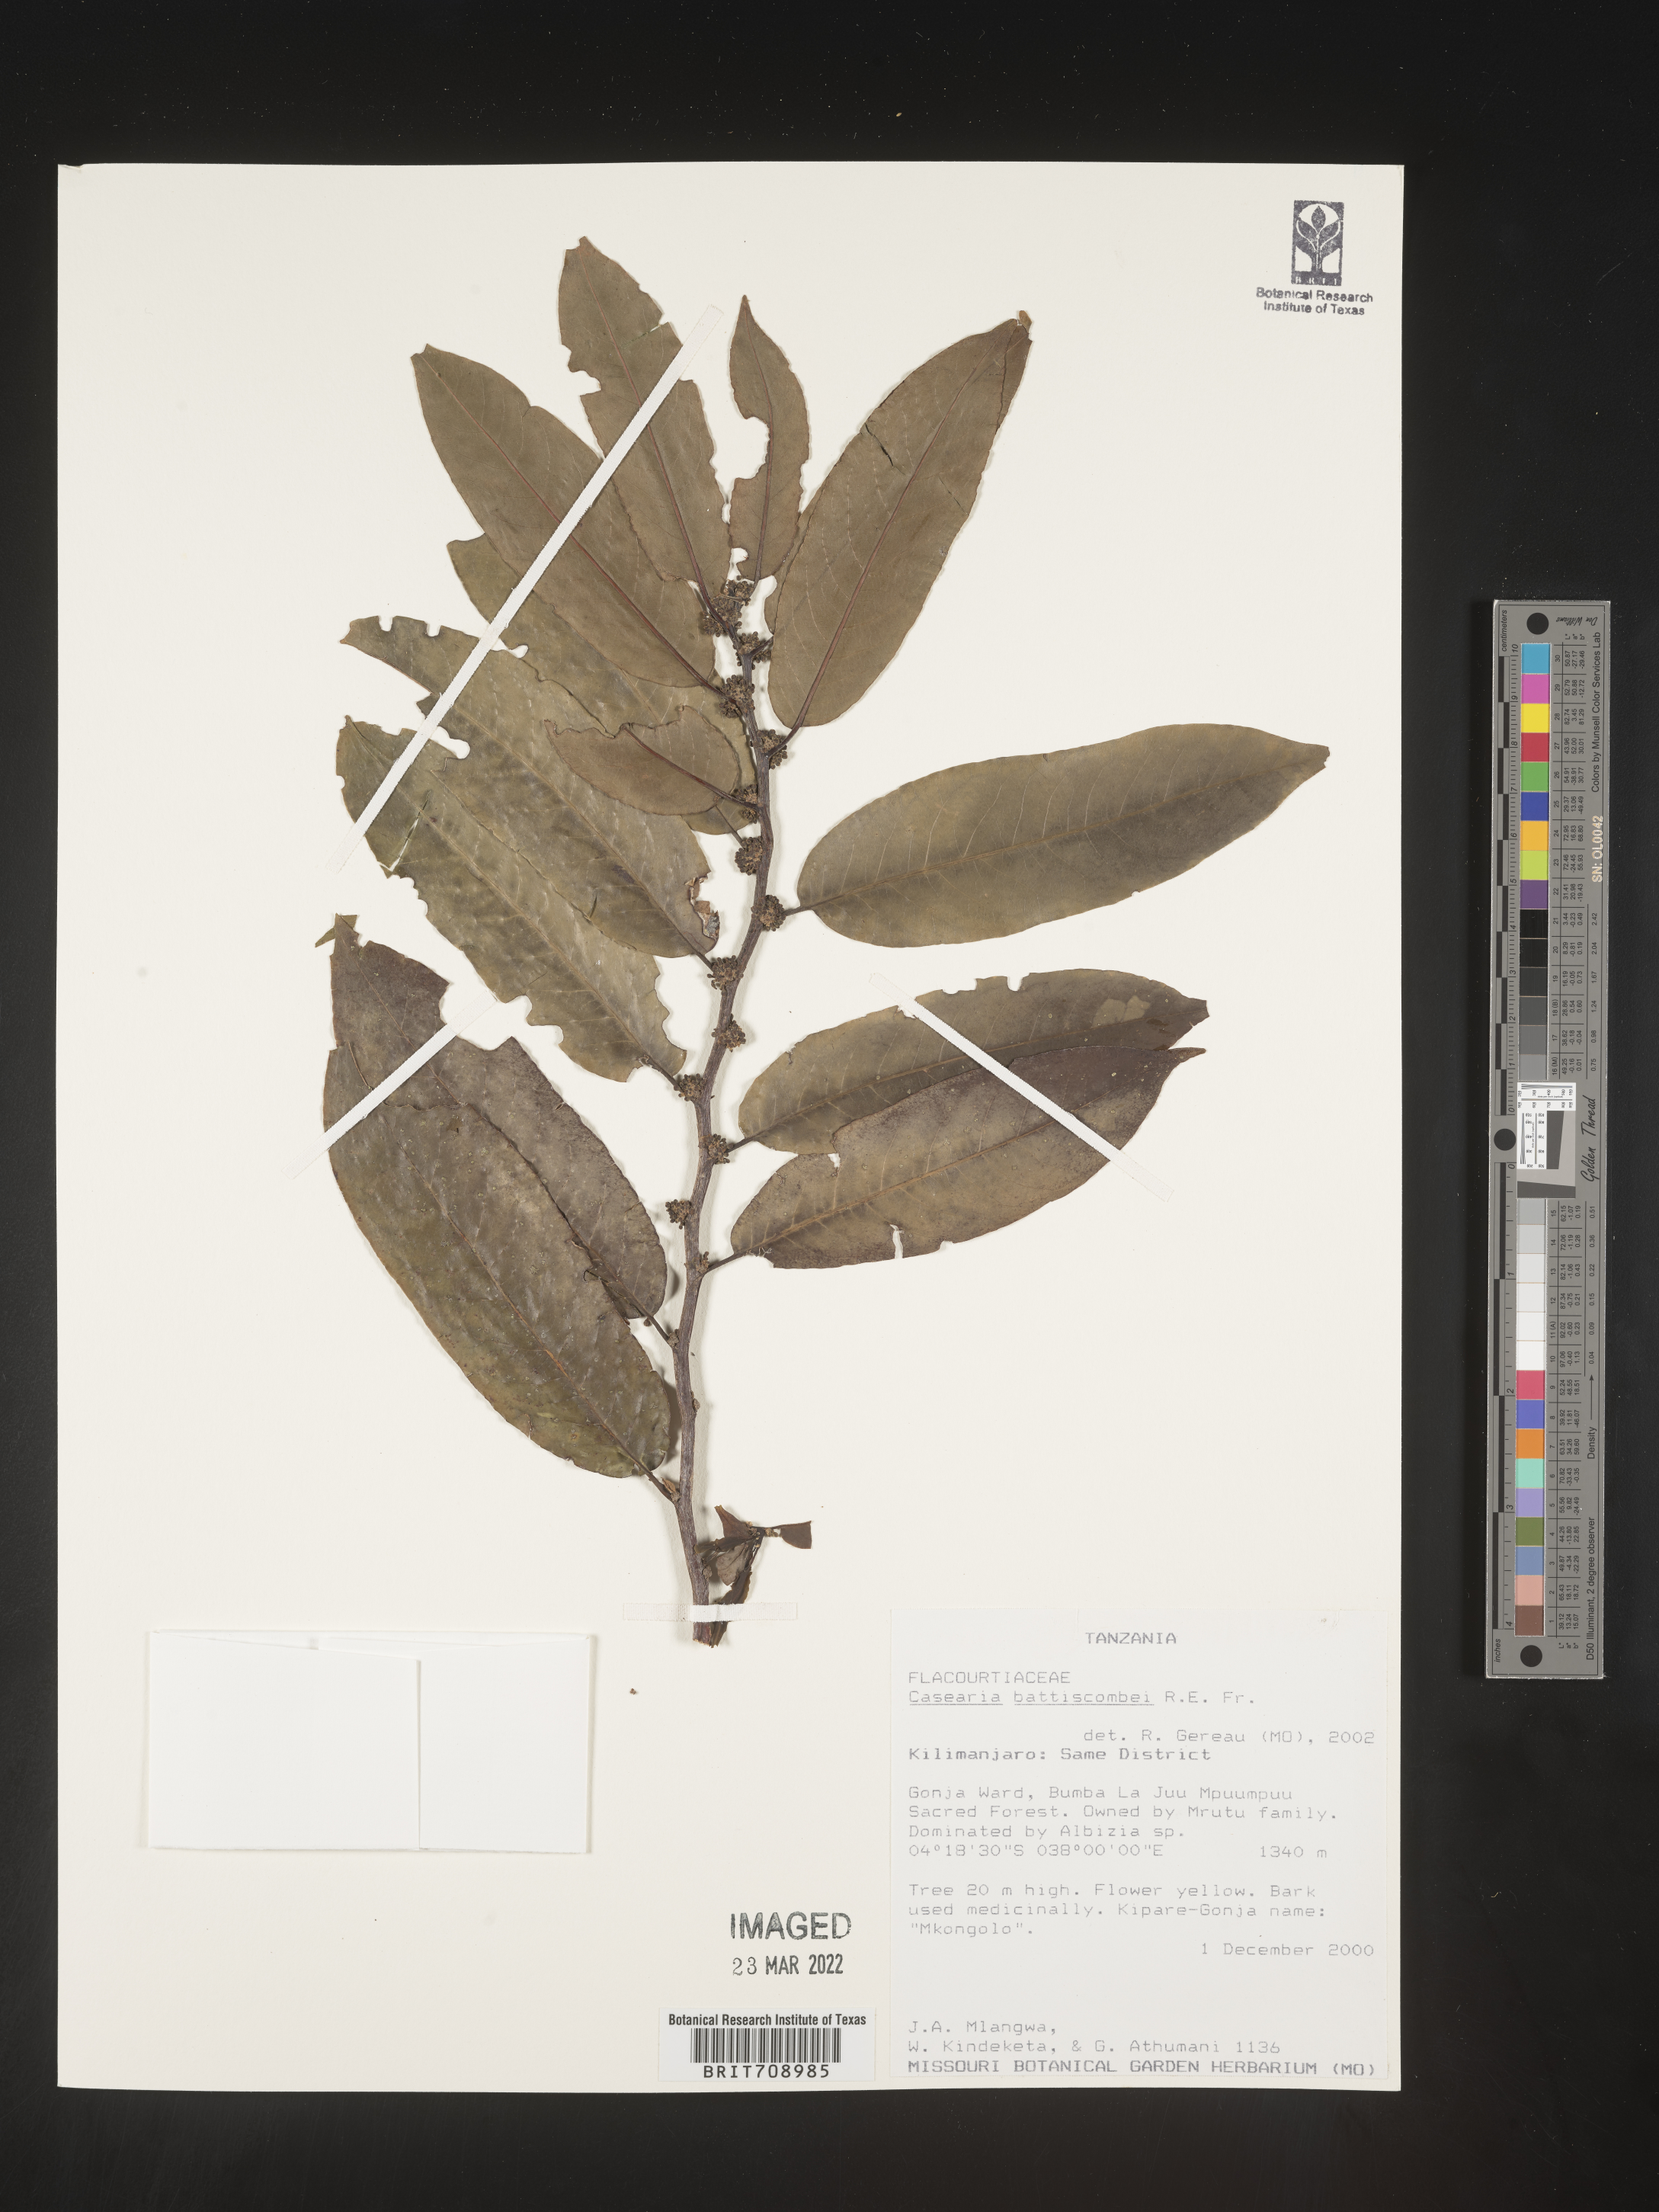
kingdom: Plantae
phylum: Tracheophyta
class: Magnoliopsida
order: Malpighiales
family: Salicaceae
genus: Casearia
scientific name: Casearia
